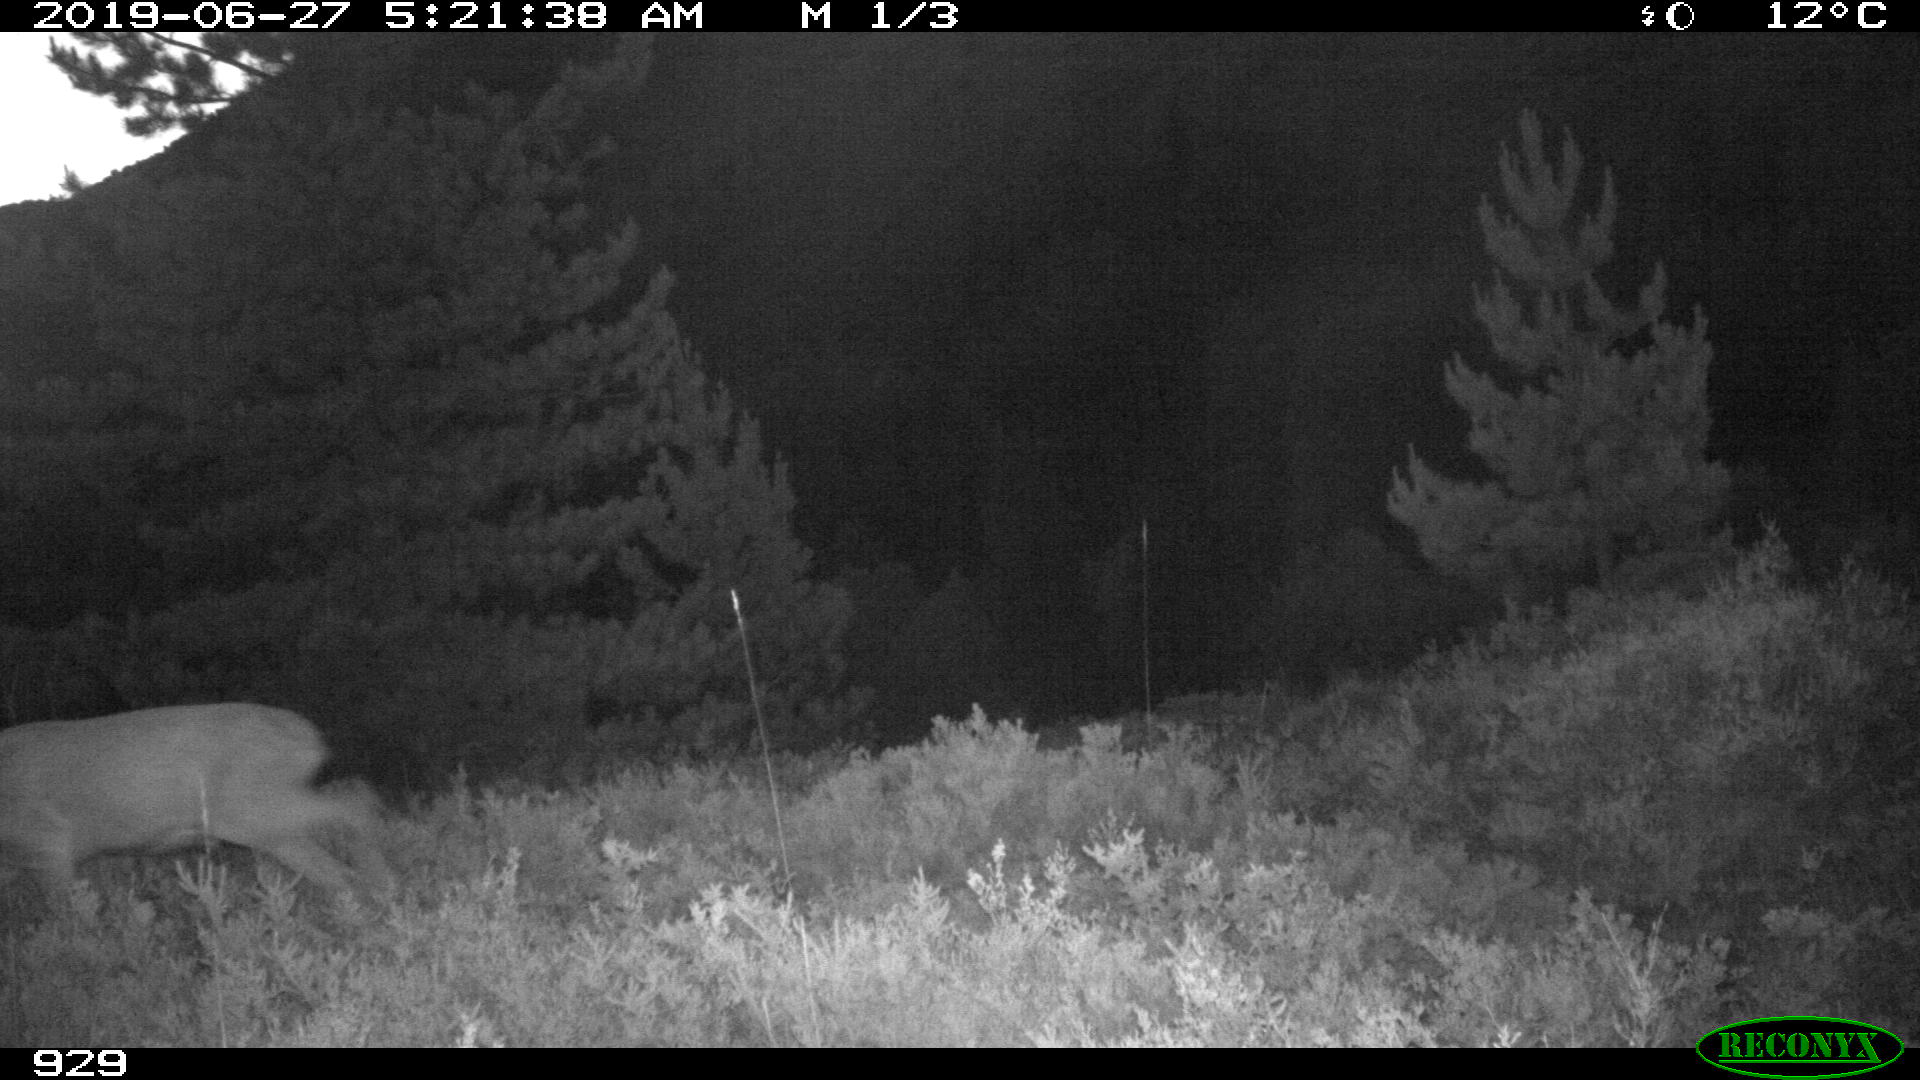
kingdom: Animalia
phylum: Chordata
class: Mammalia
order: Artiodactyla
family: Cervidae
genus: Capreolus
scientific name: Capreolus capreolus
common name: Western roe deer
